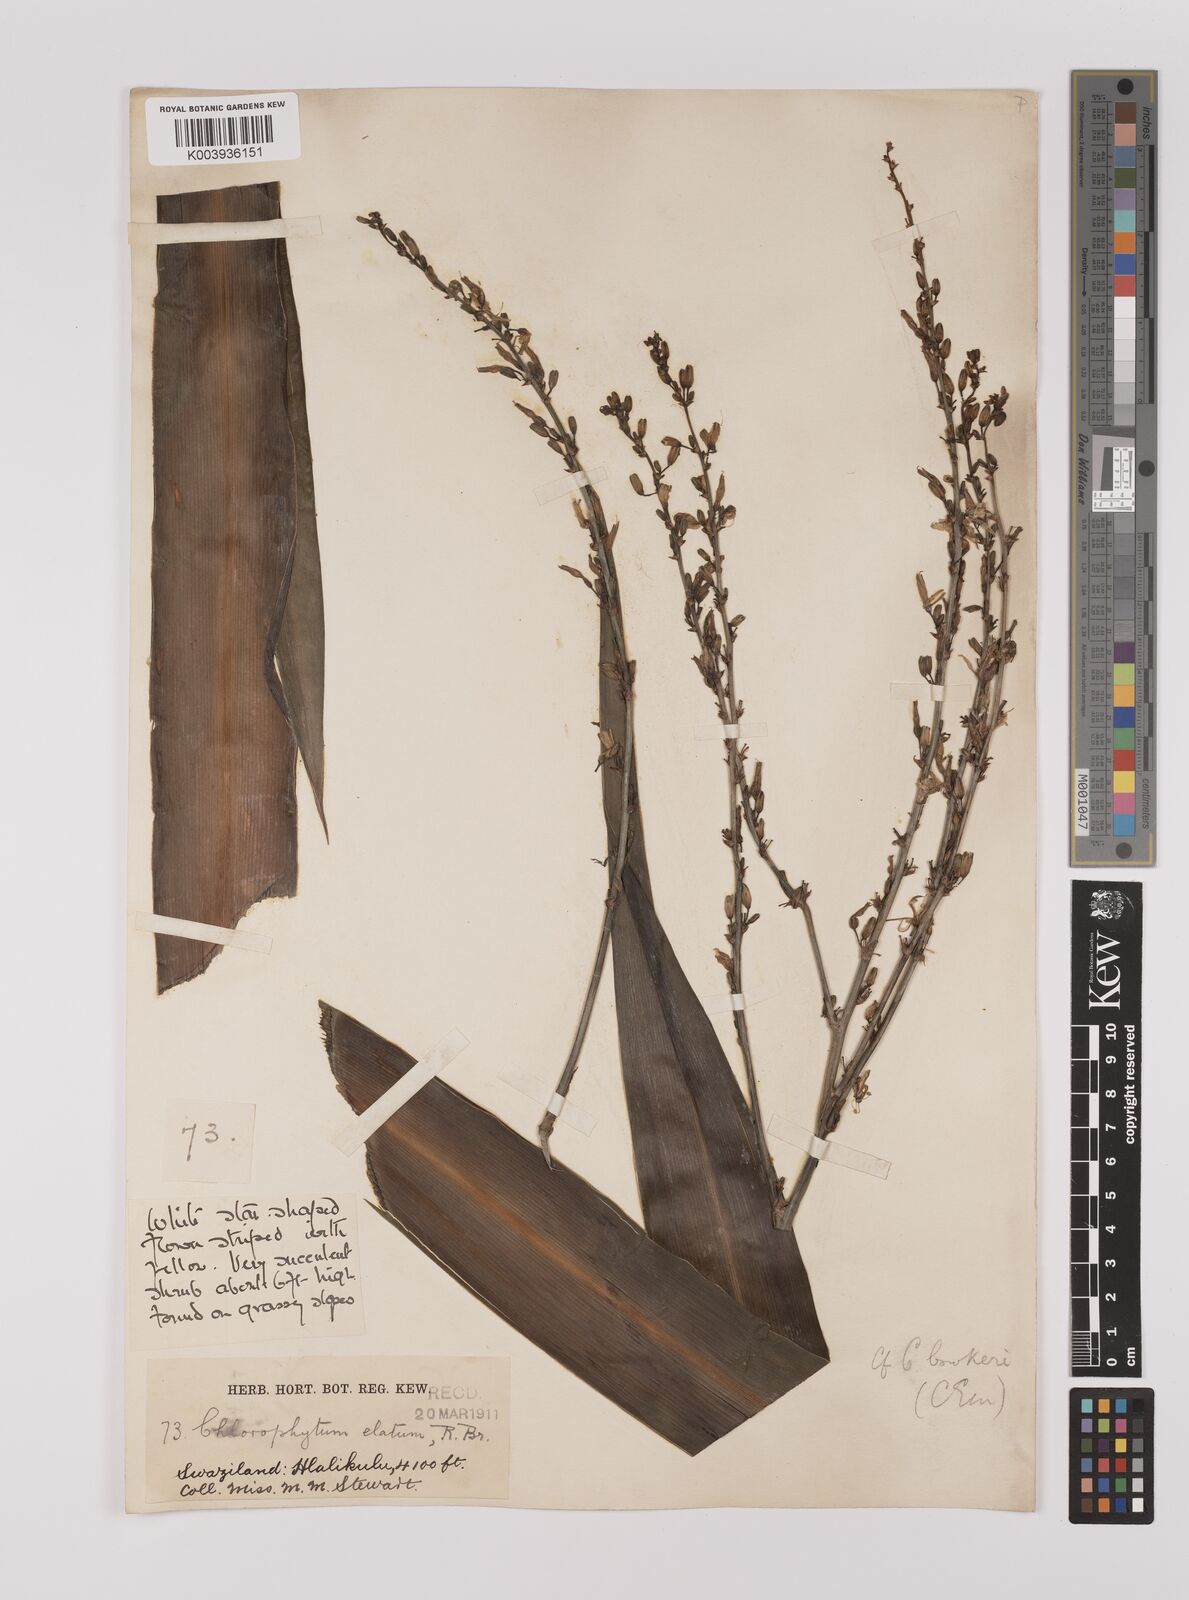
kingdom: Plantae
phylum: Tracheophyta
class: Liliopsida
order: Asparagales
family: Asparagaceae
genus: Chlorophytum
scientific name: Chlorophytum
